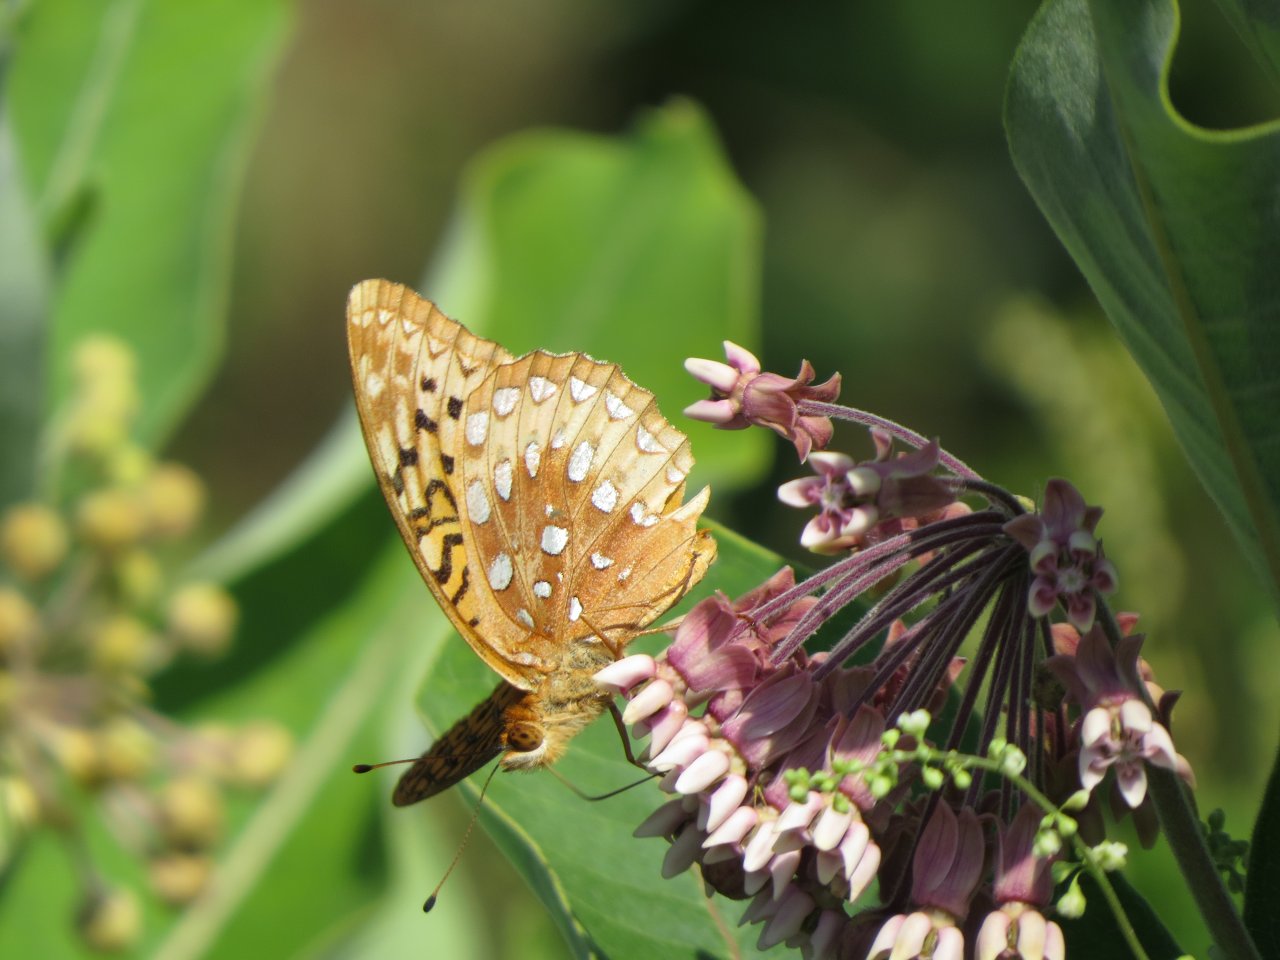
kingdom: Animalia
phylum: Arthropoda
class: Insecta
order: Lepidoptera
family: Nymphalidae
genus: Speyeria
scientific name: Speyeria cybele
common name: Great Spangled Fritillary
